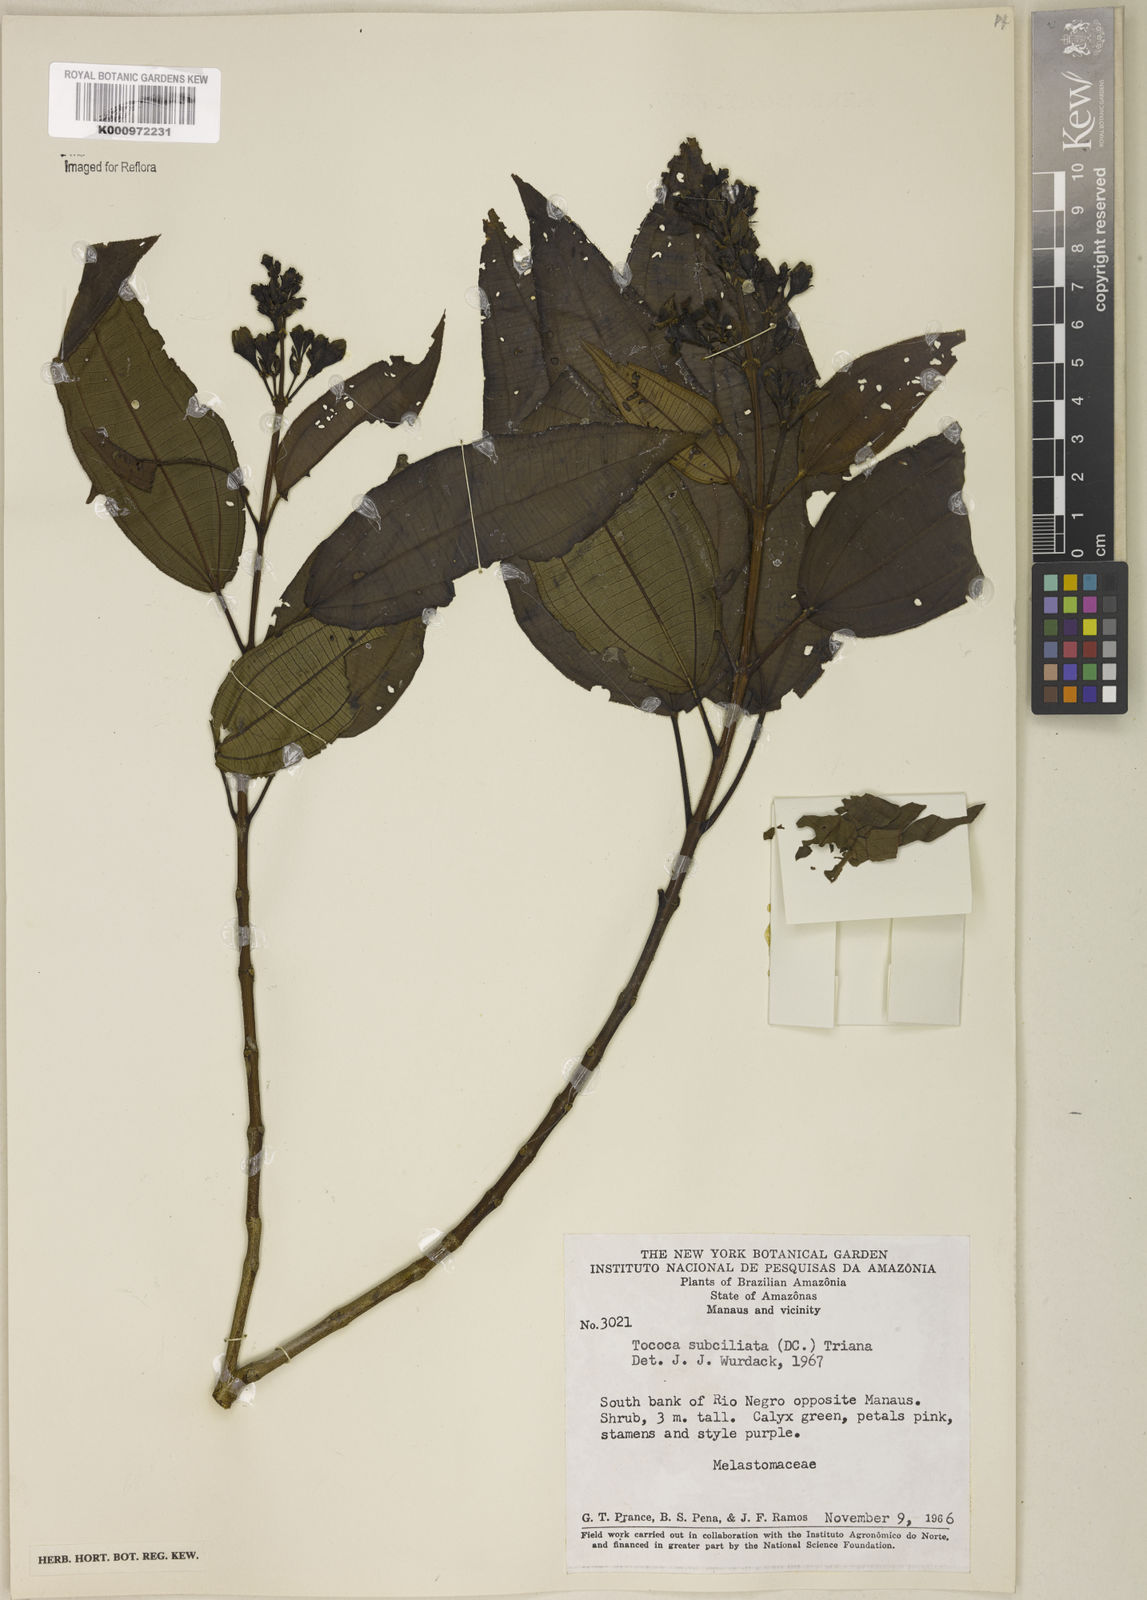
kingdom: Plantae
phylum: Tracheophyta
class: Magnoliopsida
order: Myrtales
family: Melastomataceae
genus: Miconia
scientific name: Miconia subciliata
